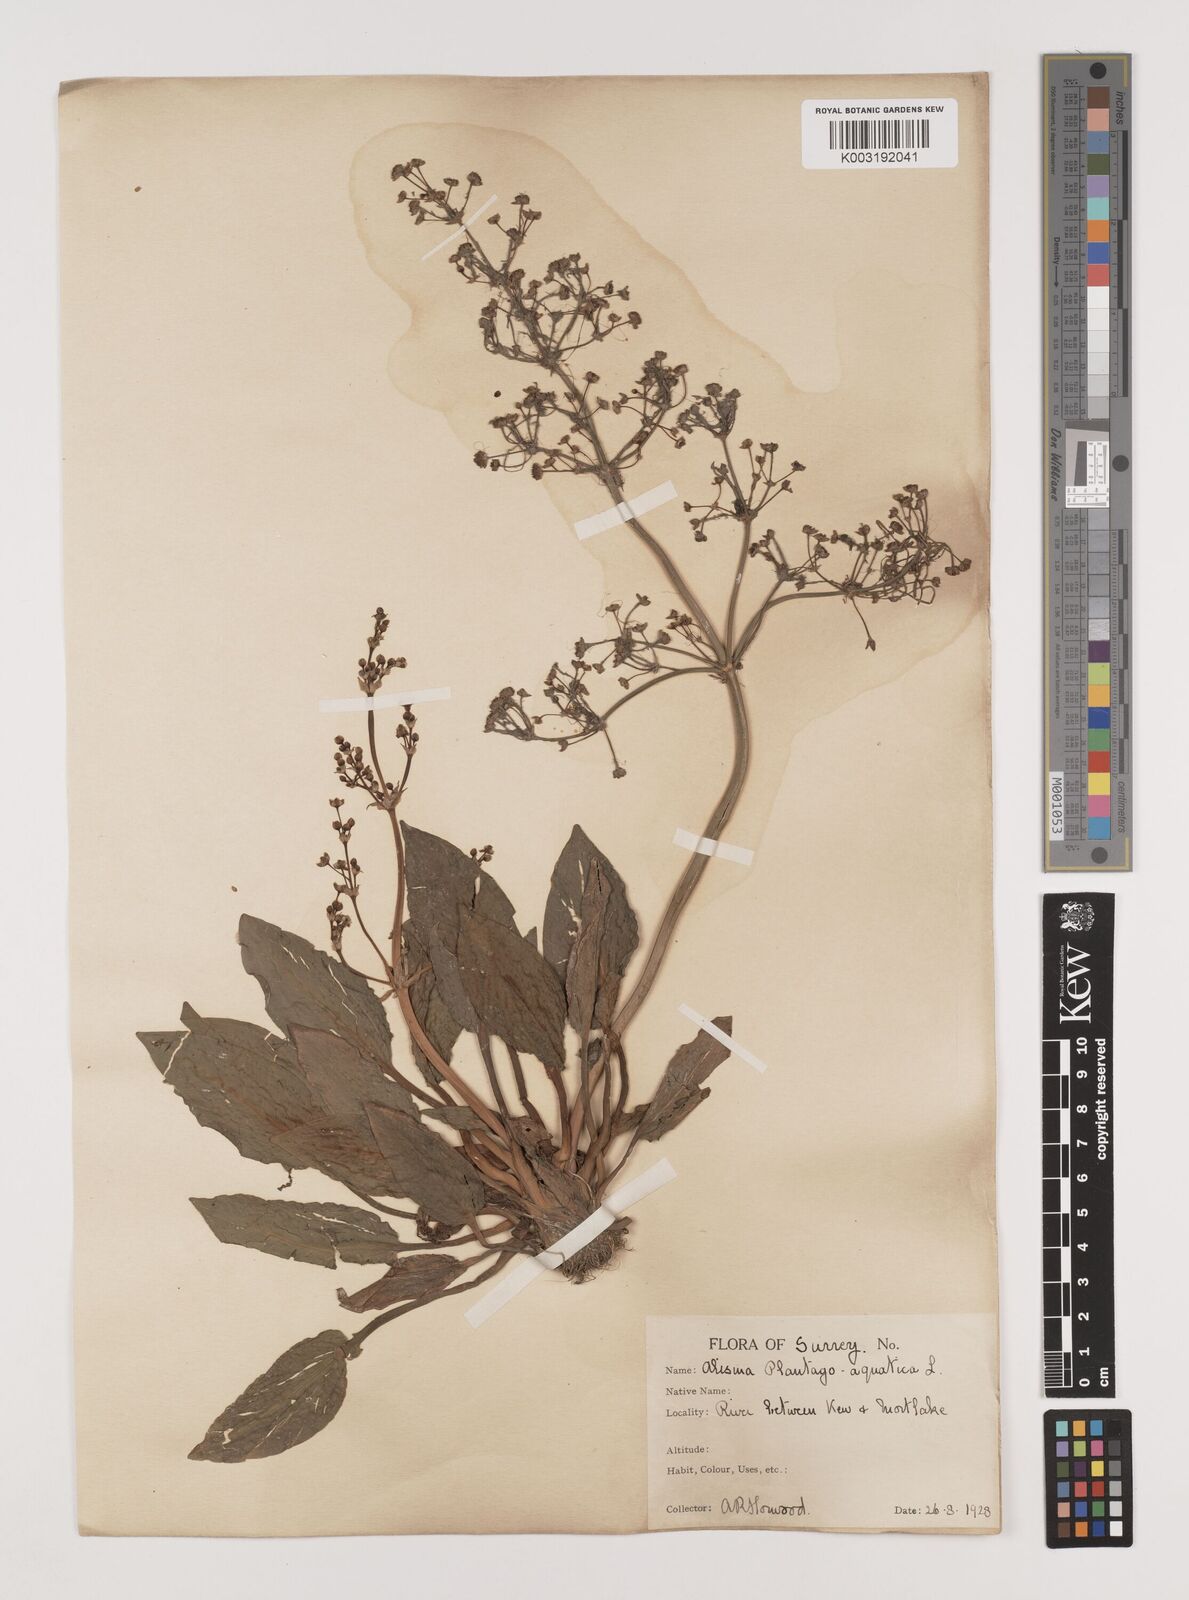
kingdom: Plantae
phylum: Tracheophyta
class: Liliopsida
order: Alismatales
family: Alismataceae
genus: Alisma
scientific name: Alisma plantago-aquatica
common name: Water-plantain
